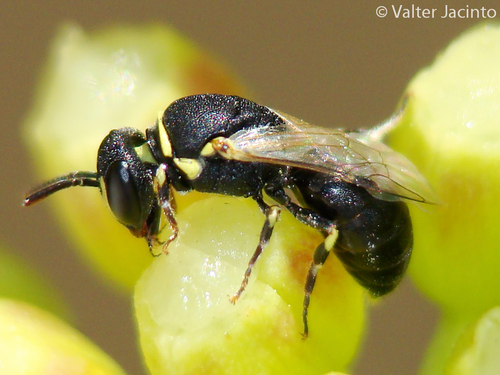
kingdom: Animalia
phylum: Arthropoda
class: Insecta
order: Hymenoptera
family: Colletidae
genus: Hylaeus
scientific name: Hylaeus
